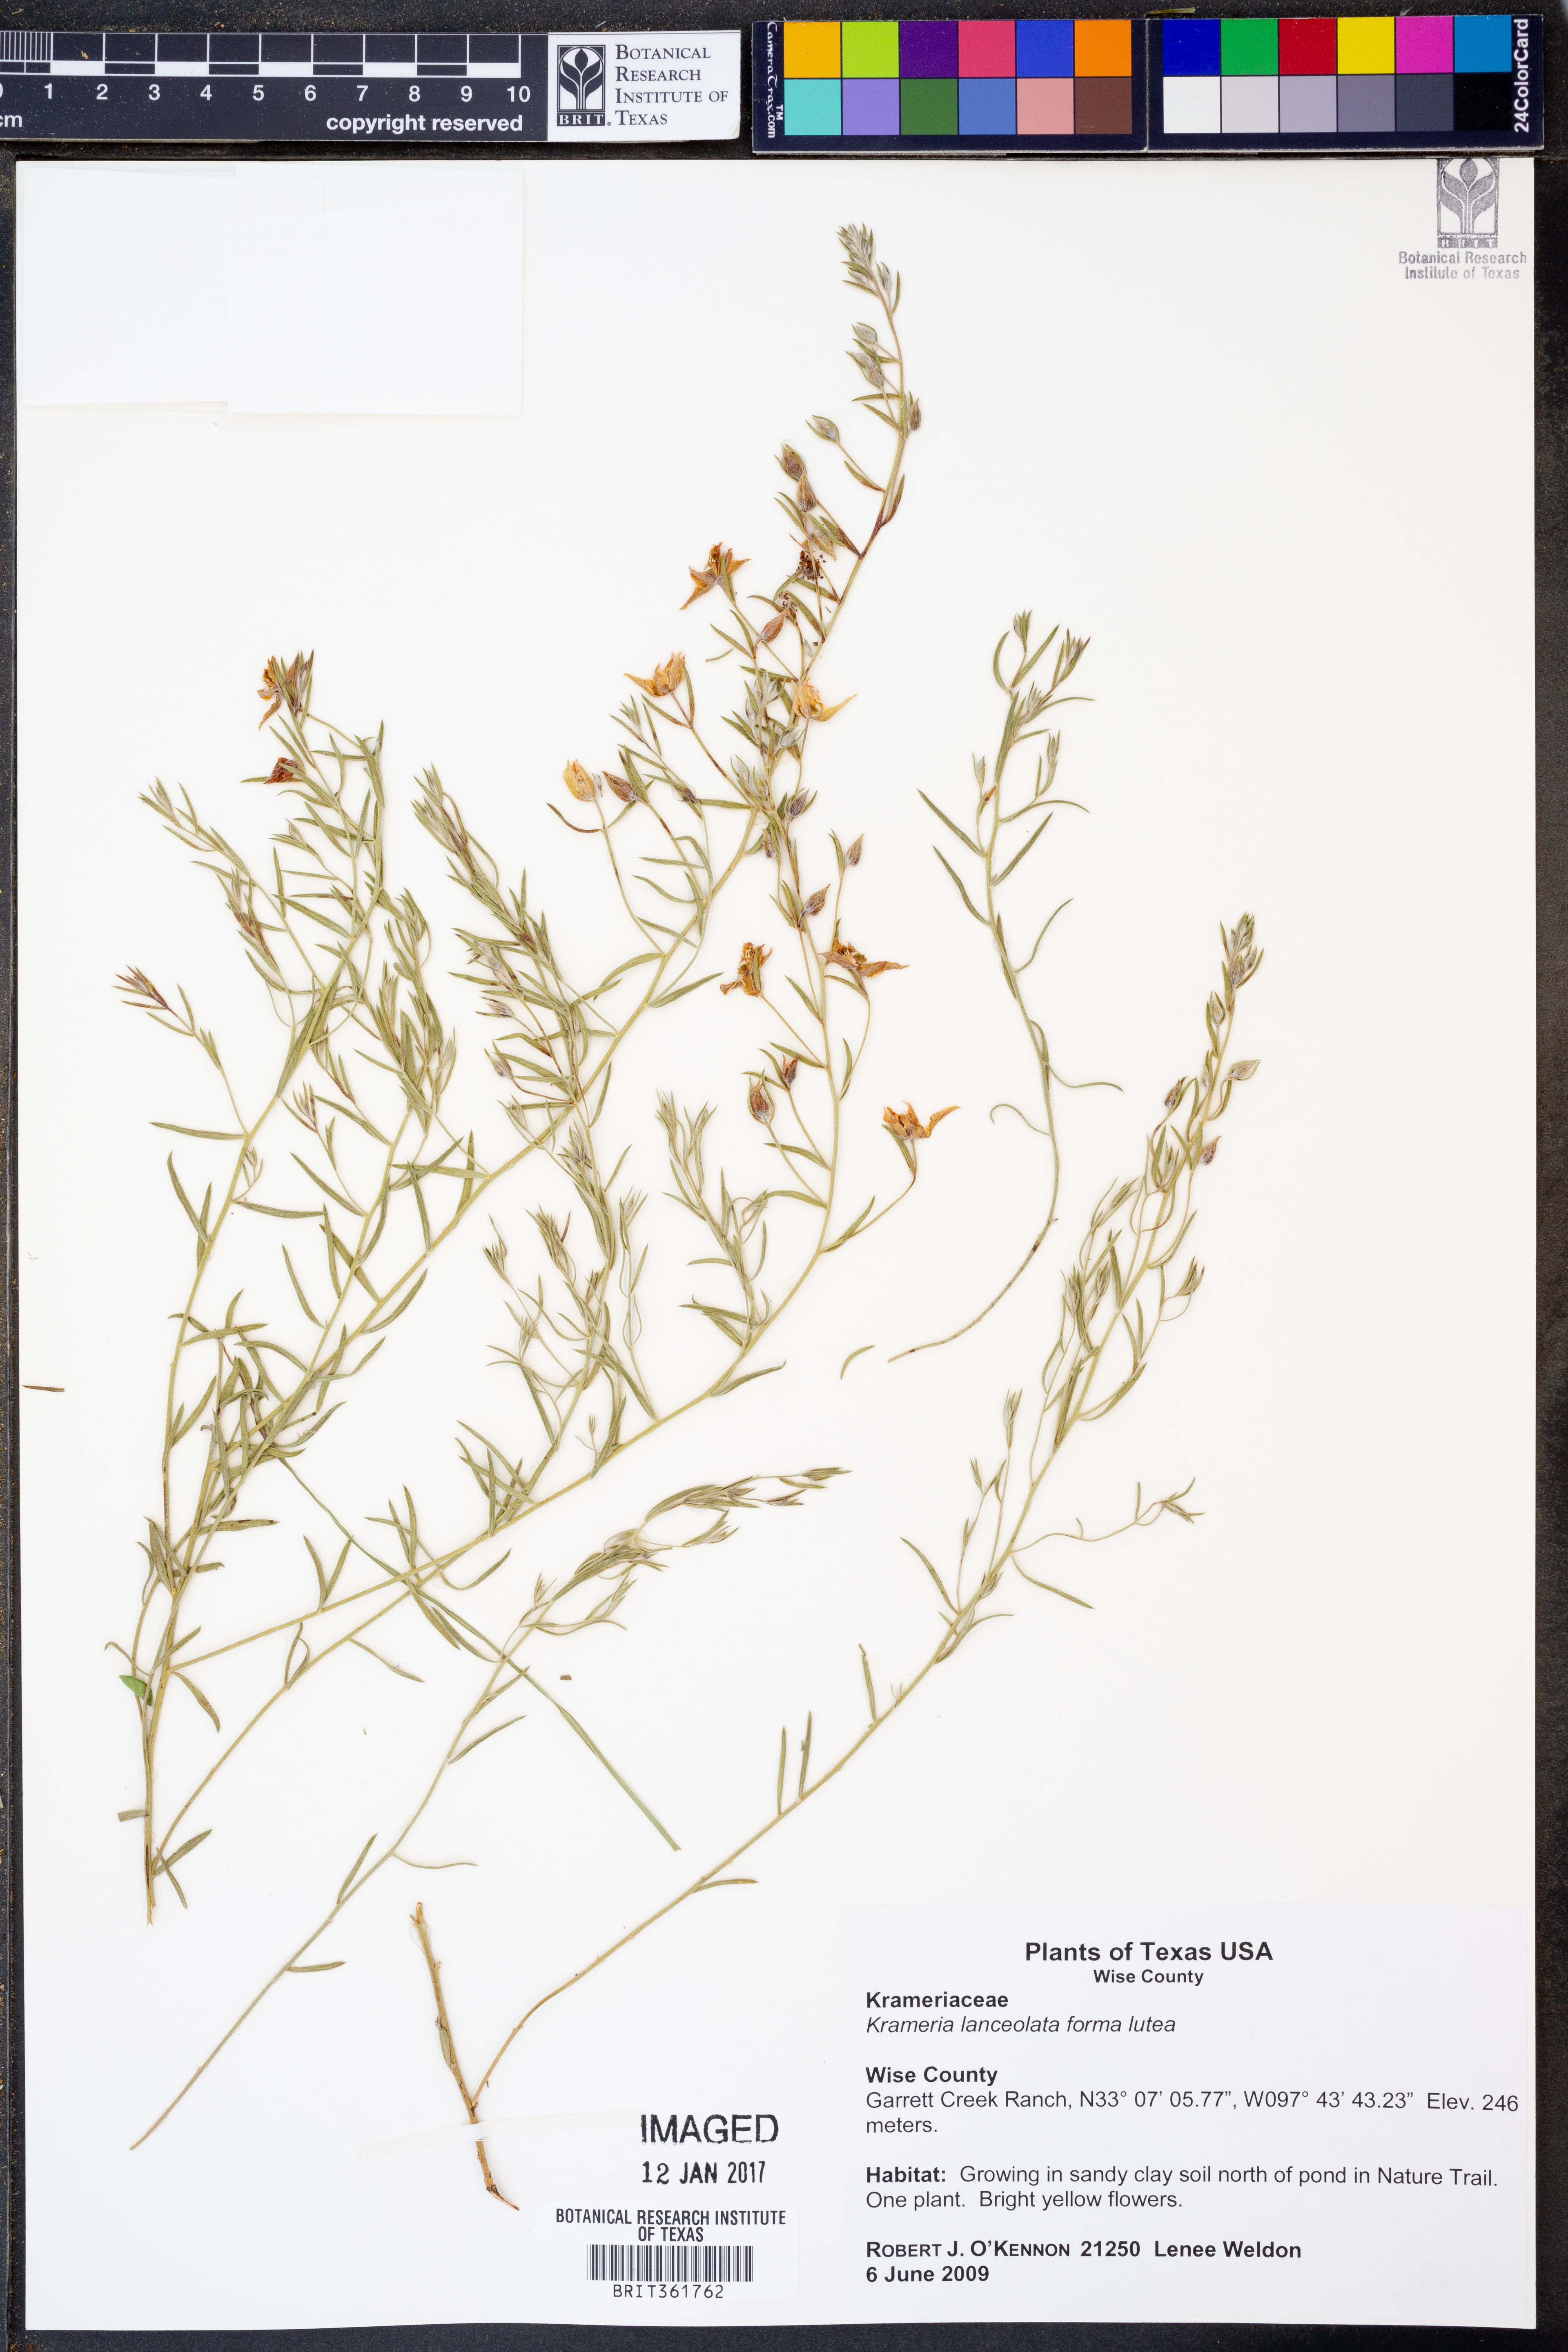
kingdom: Plantae
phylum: Tracheophyta
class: Magnoliopsida
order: Zygophyllales
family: Krameriaceae
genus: Krameria
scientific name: Krameria lanceolata
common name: Ratany
